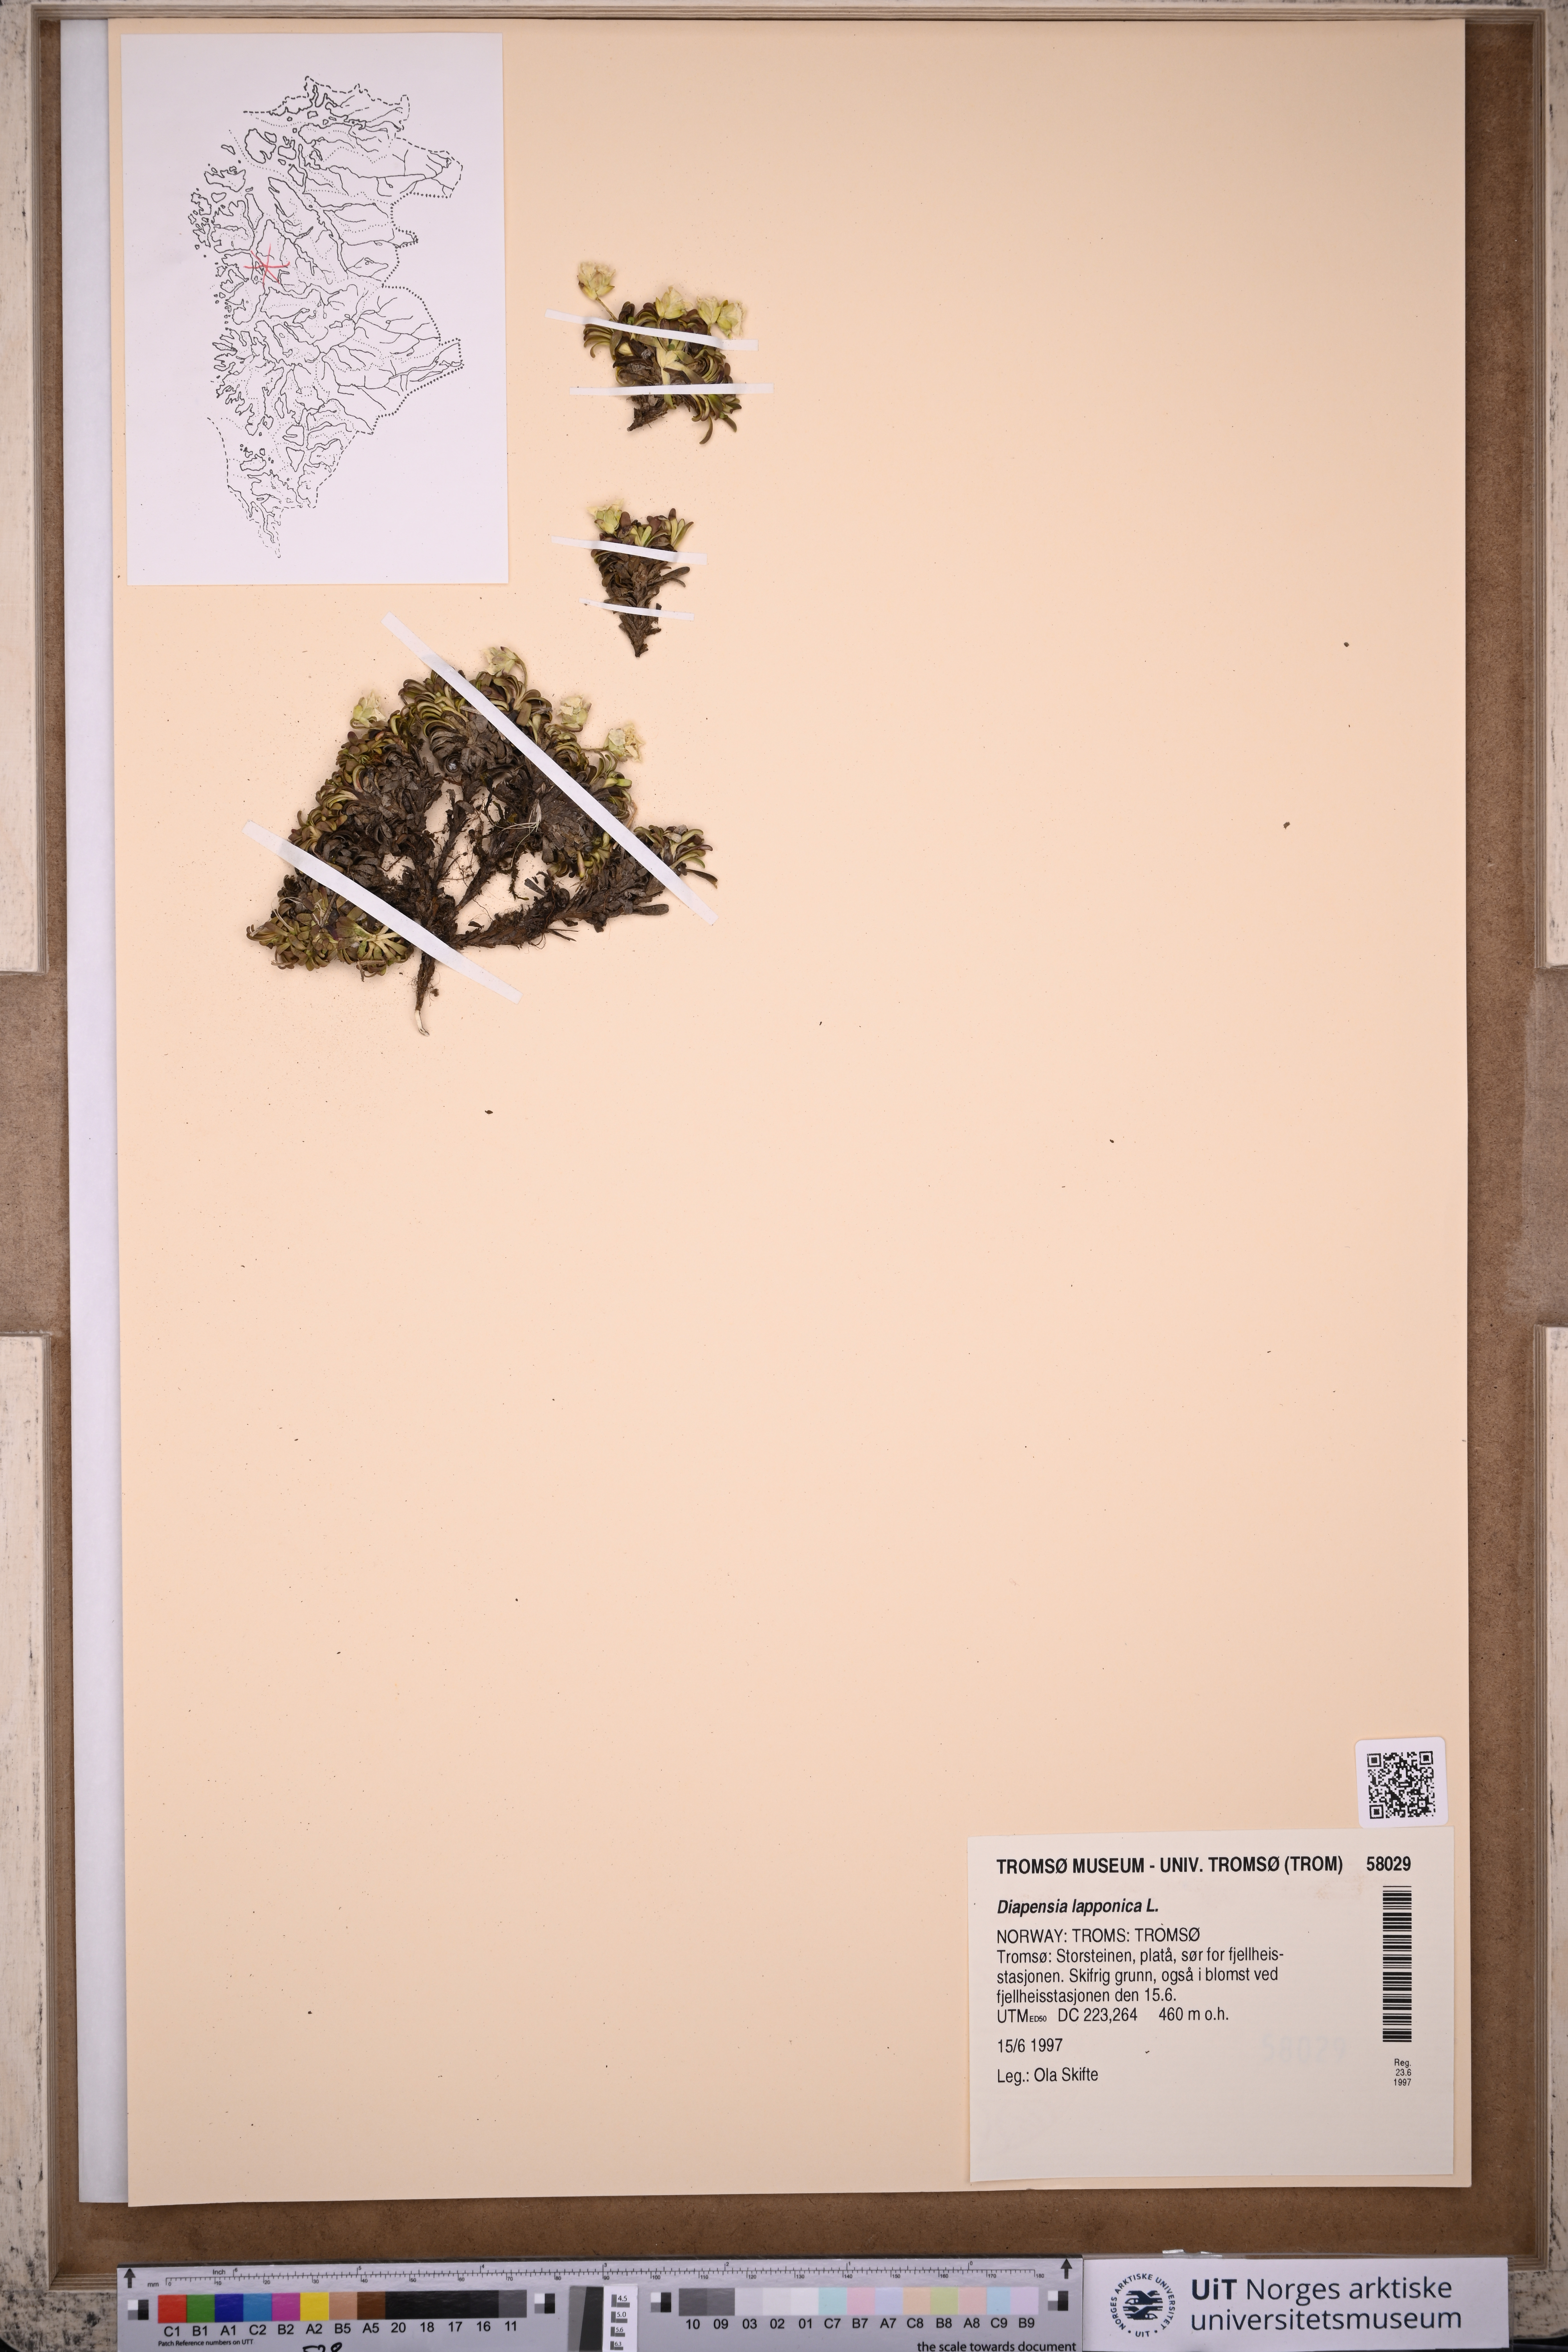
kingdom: Plantae
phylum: Tracheophyta
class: Magnoliopsida
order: Ericales
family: Diapensiaceae
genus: Diapensia
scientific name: Diapensia lapponica
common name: Diapensia
